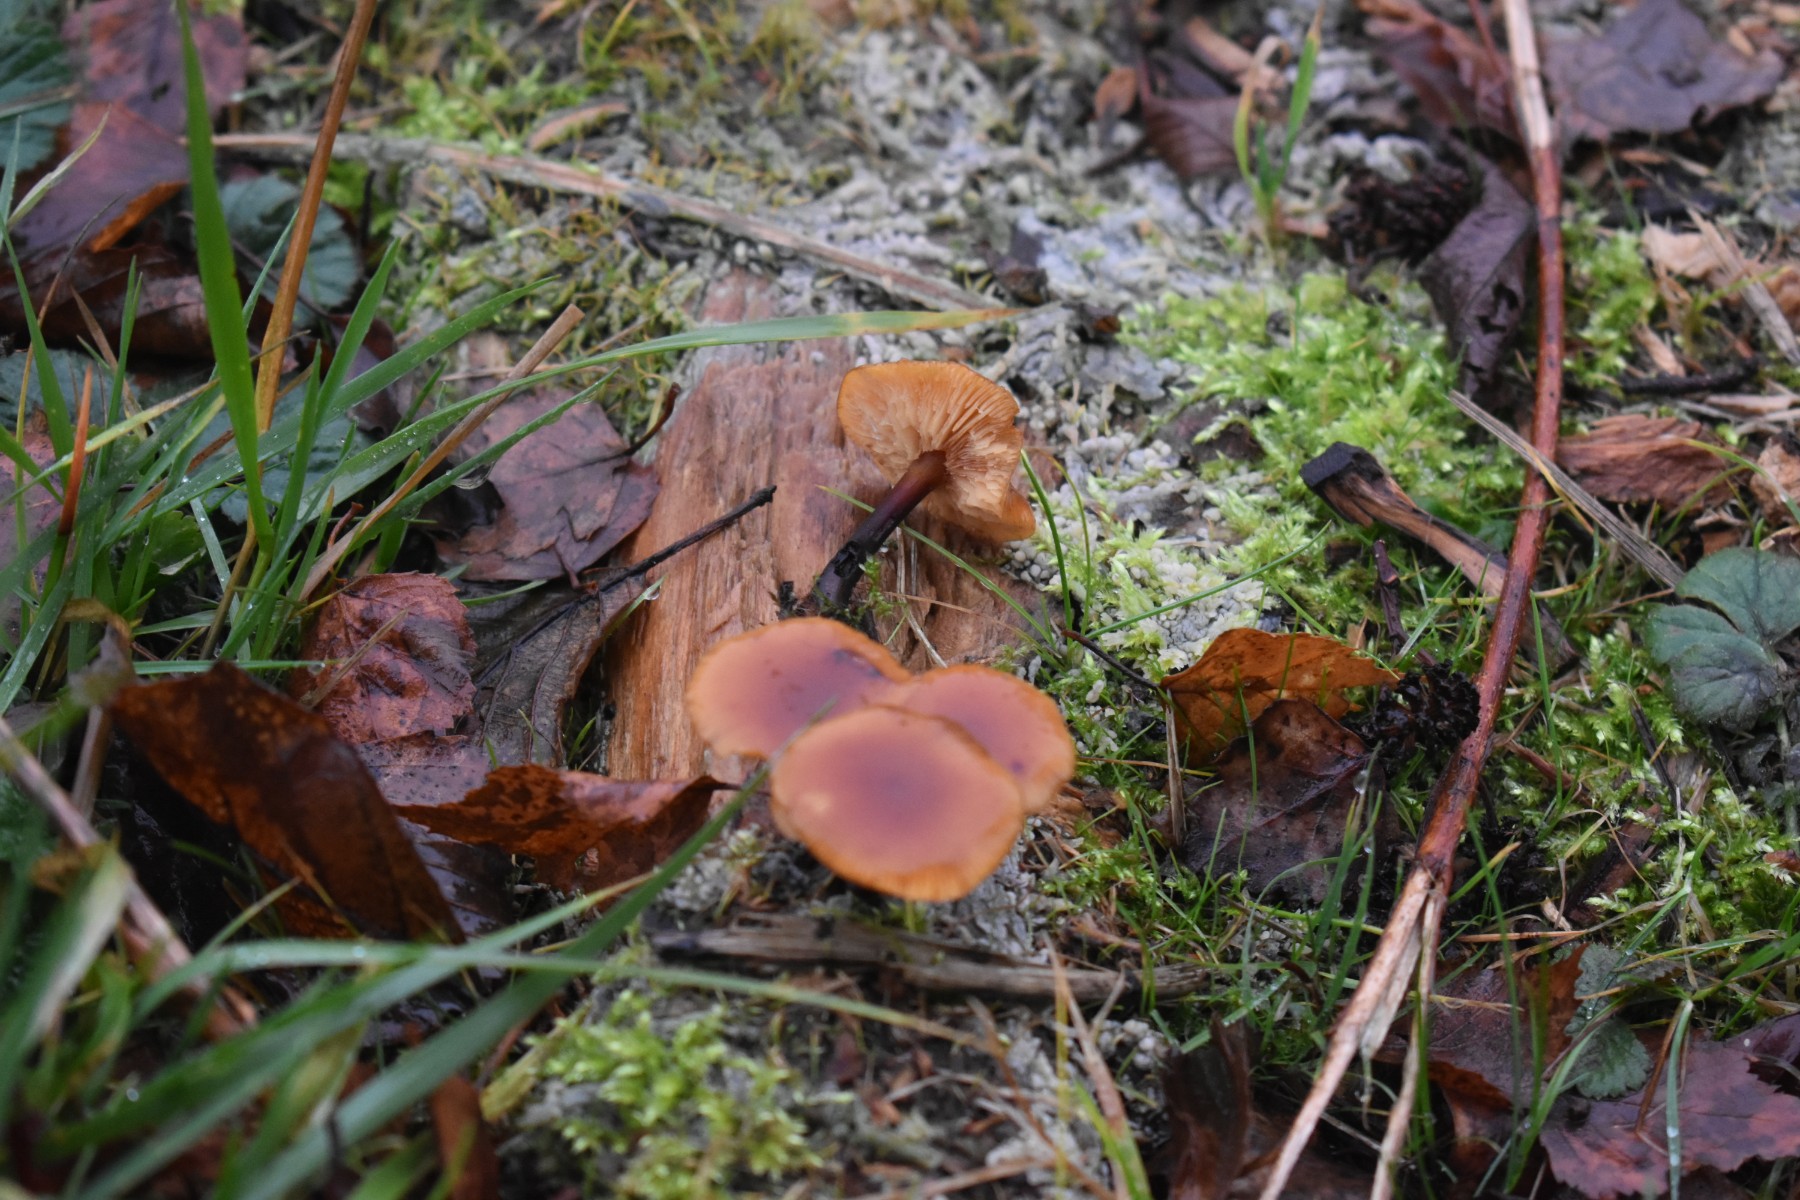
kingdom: Fungi
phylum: Basidiomycota
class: Agaricomycetes
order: Agaricales
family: Physalacriaceae
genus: Flammulina
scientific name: Flammulina elastica
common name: pile-fløjlsfod
